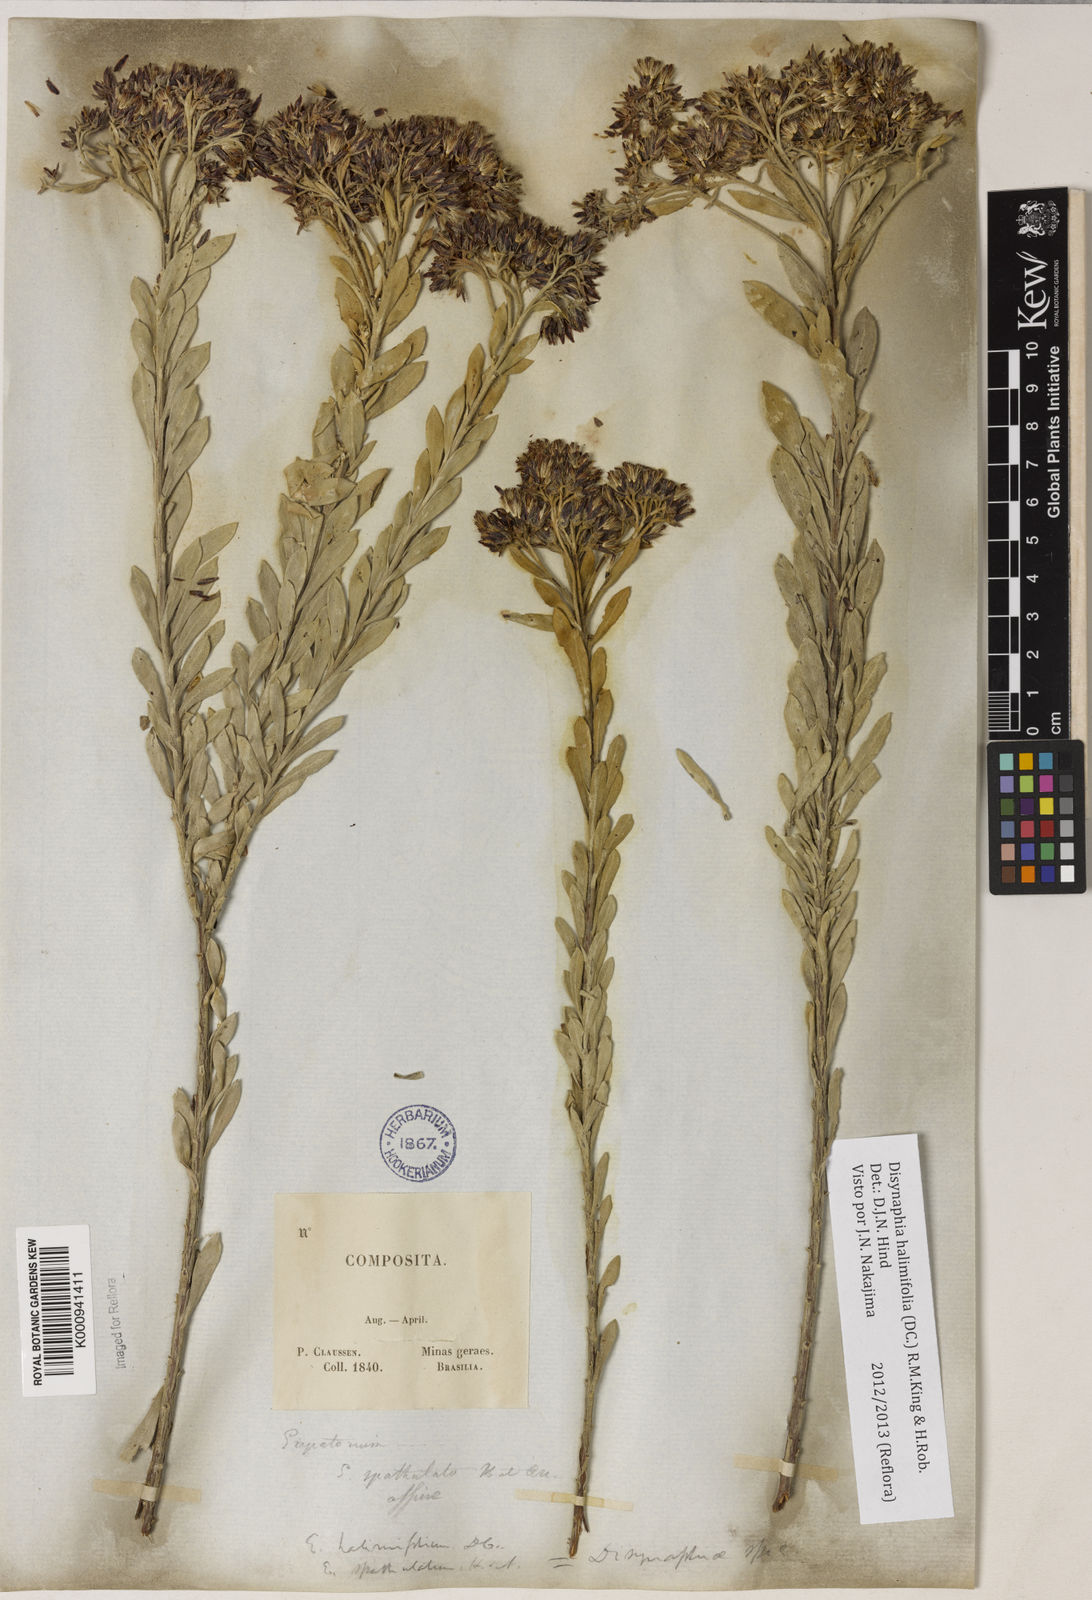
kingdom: Plantae
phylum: Tracheophyta
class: Magnoliopsida
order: Asterales
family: Asteraceae
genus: Disynaphia
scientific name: Disynaphia halimifolia
